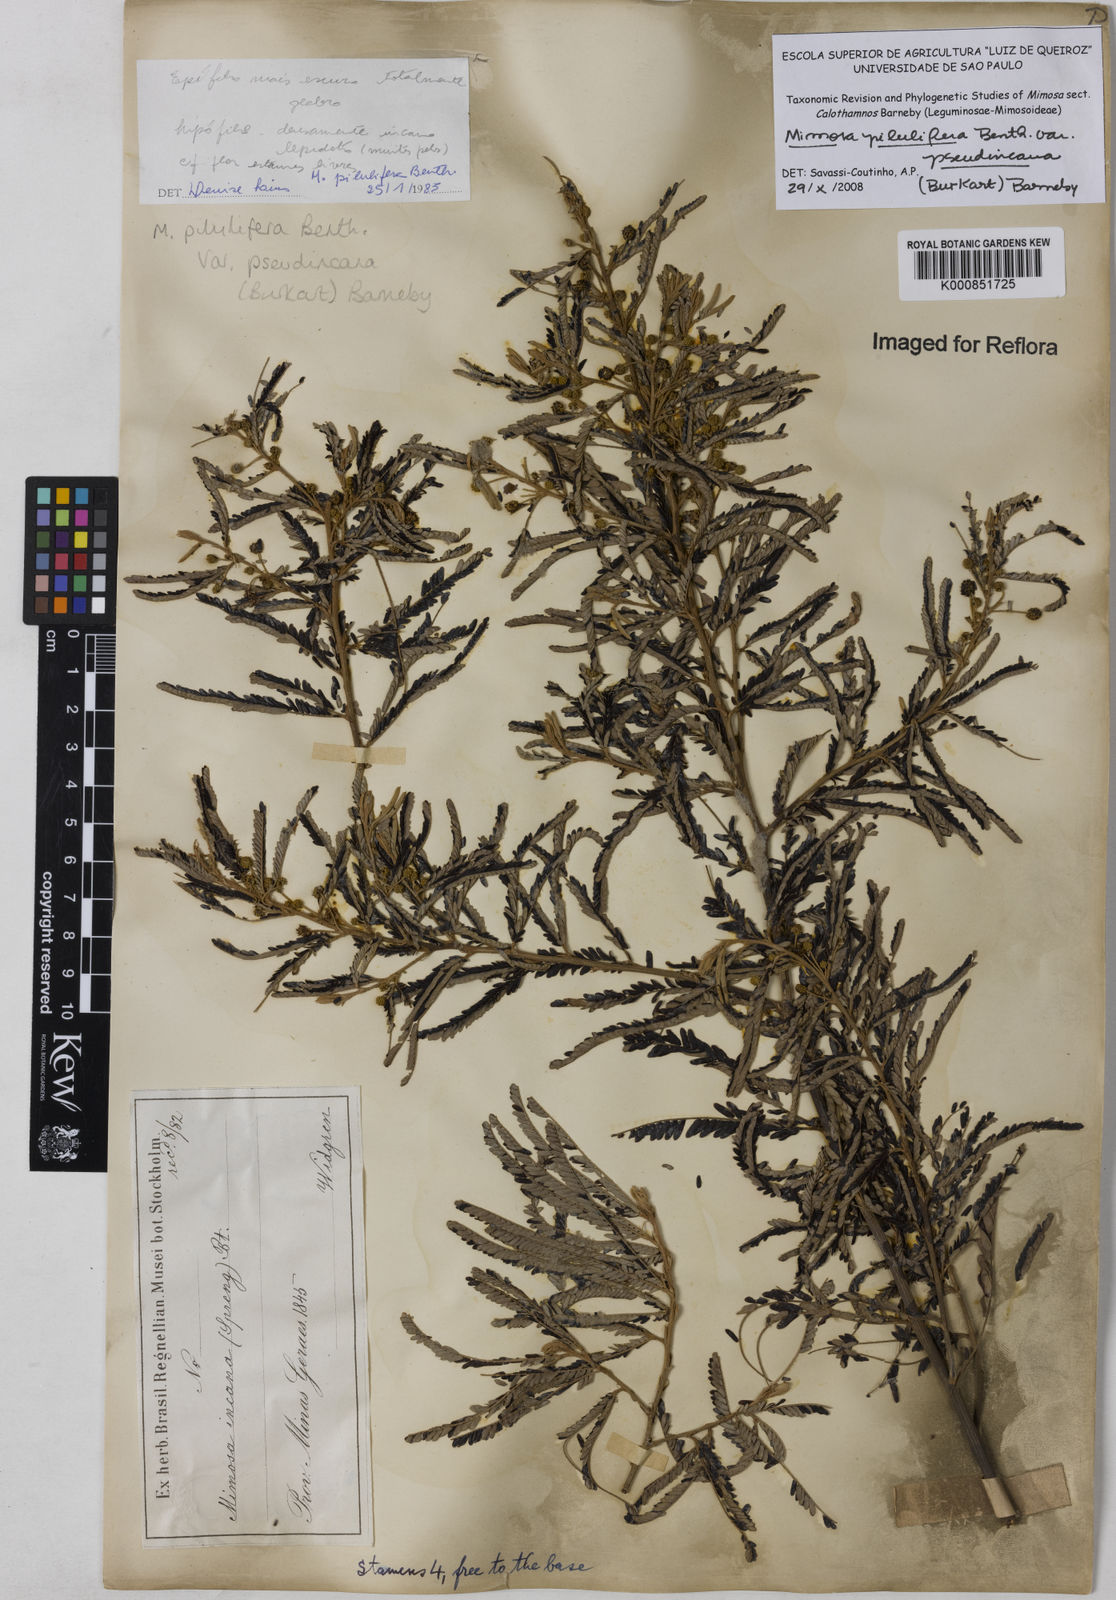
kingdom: Plantae
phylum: Tracheophyta
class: Magnoliopsida
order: Fabales
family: Fabaceae
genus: Mimosa
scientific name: Mimosa pilulifera
